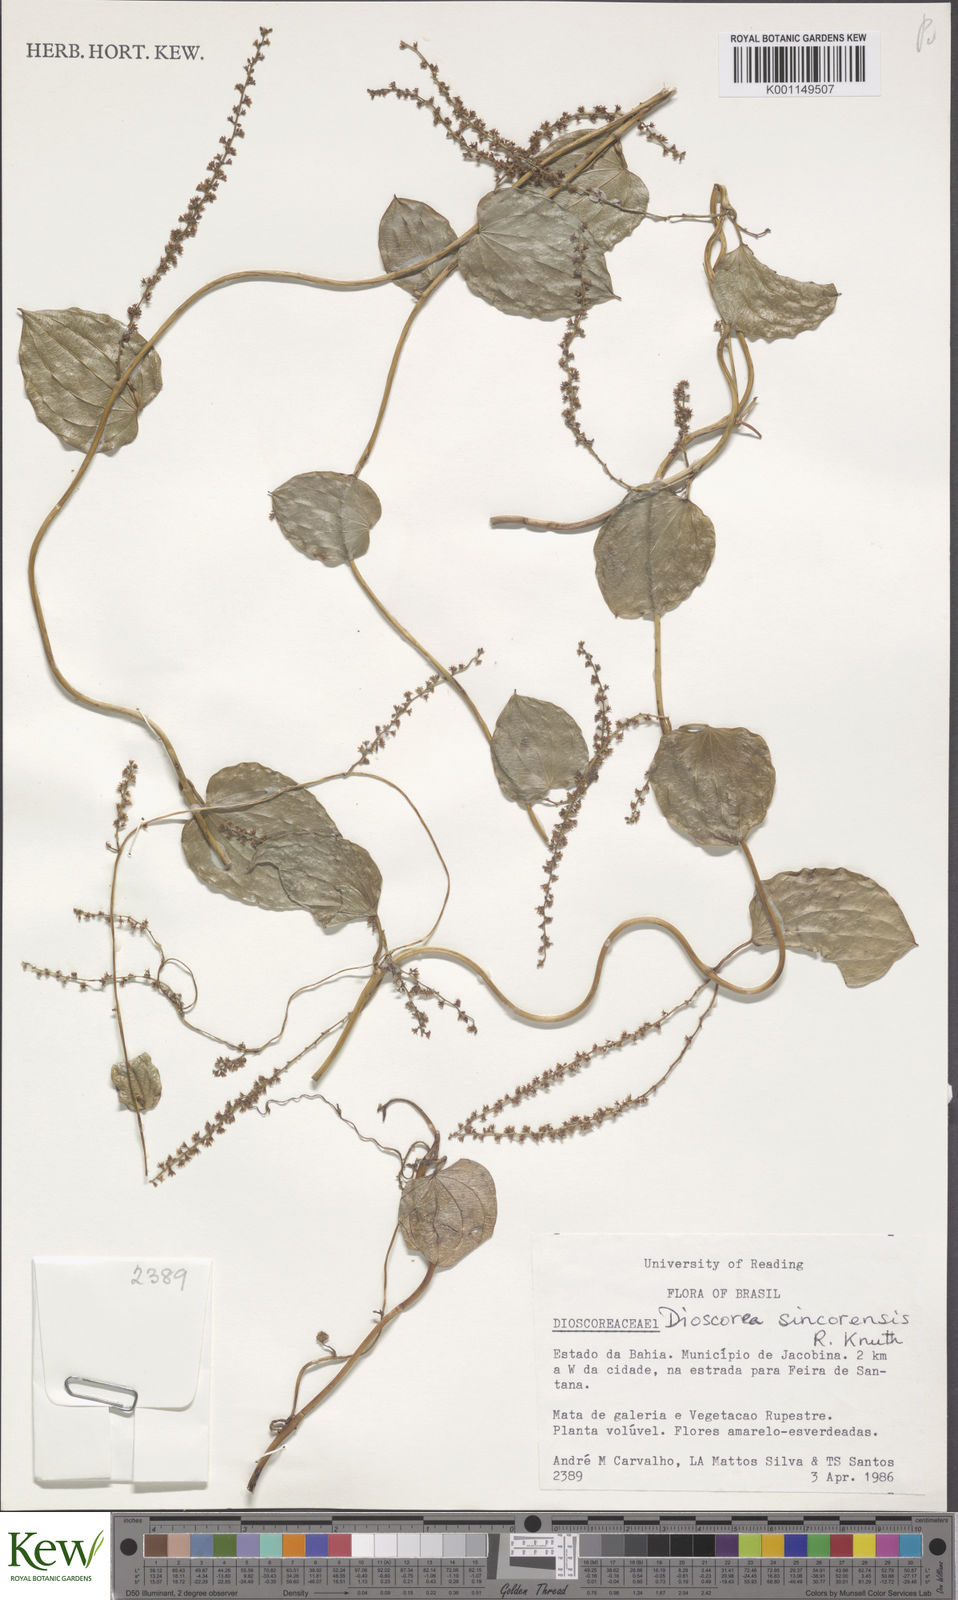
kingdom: Plantae
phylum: Tracheophyta
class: Liliopsida
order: Dioscoreales
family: Dioscoreaceae
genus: Dioscorea
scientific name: Dioscorea sincorensis
